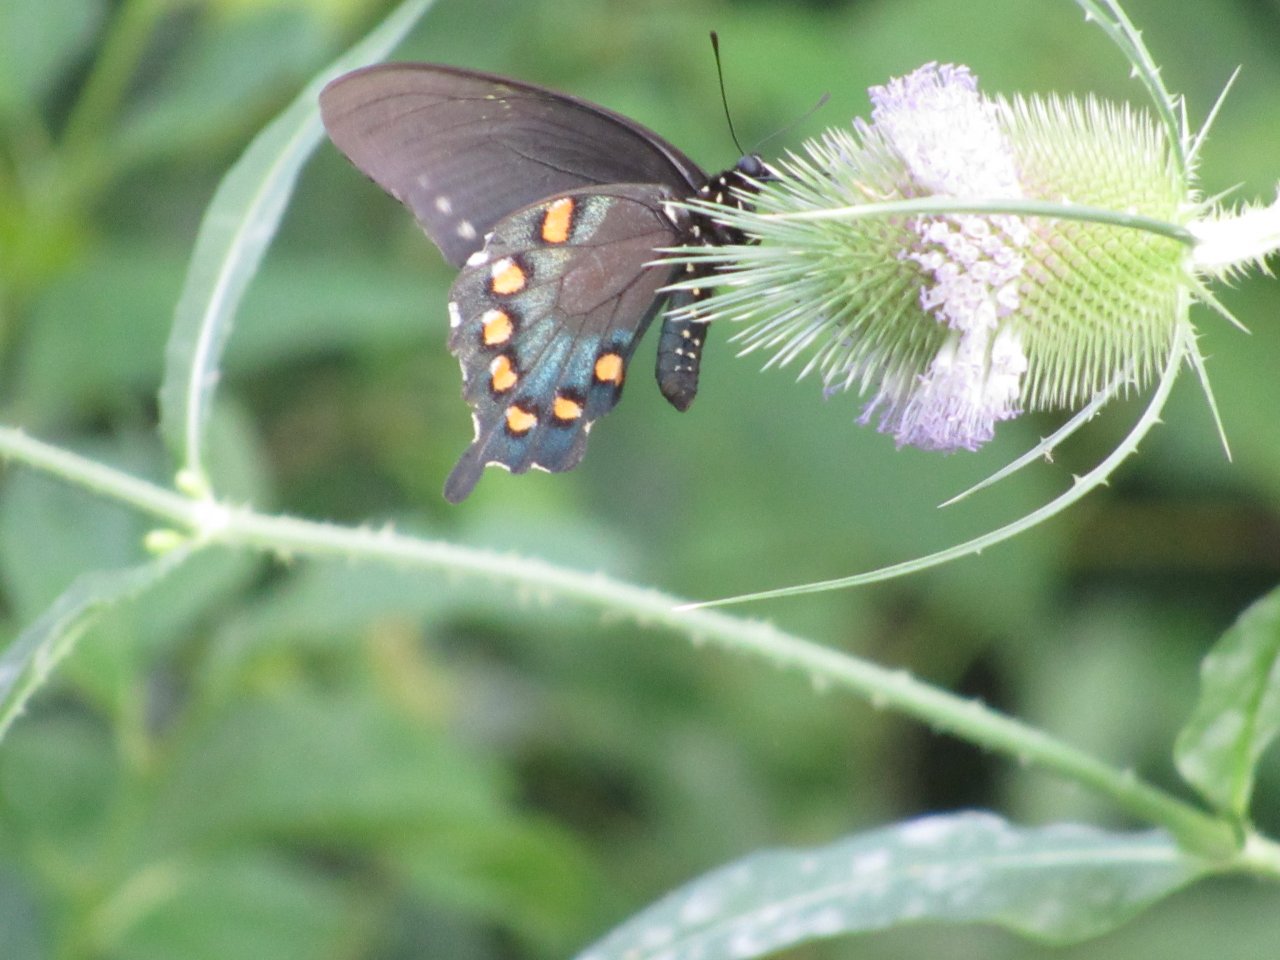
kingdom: Animalia
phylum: Arthropoda
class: Insecta
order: Lepidoptera
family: Papilionidae
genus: Battus
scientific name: Battus philenor
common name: Pipevine Swallowtail
